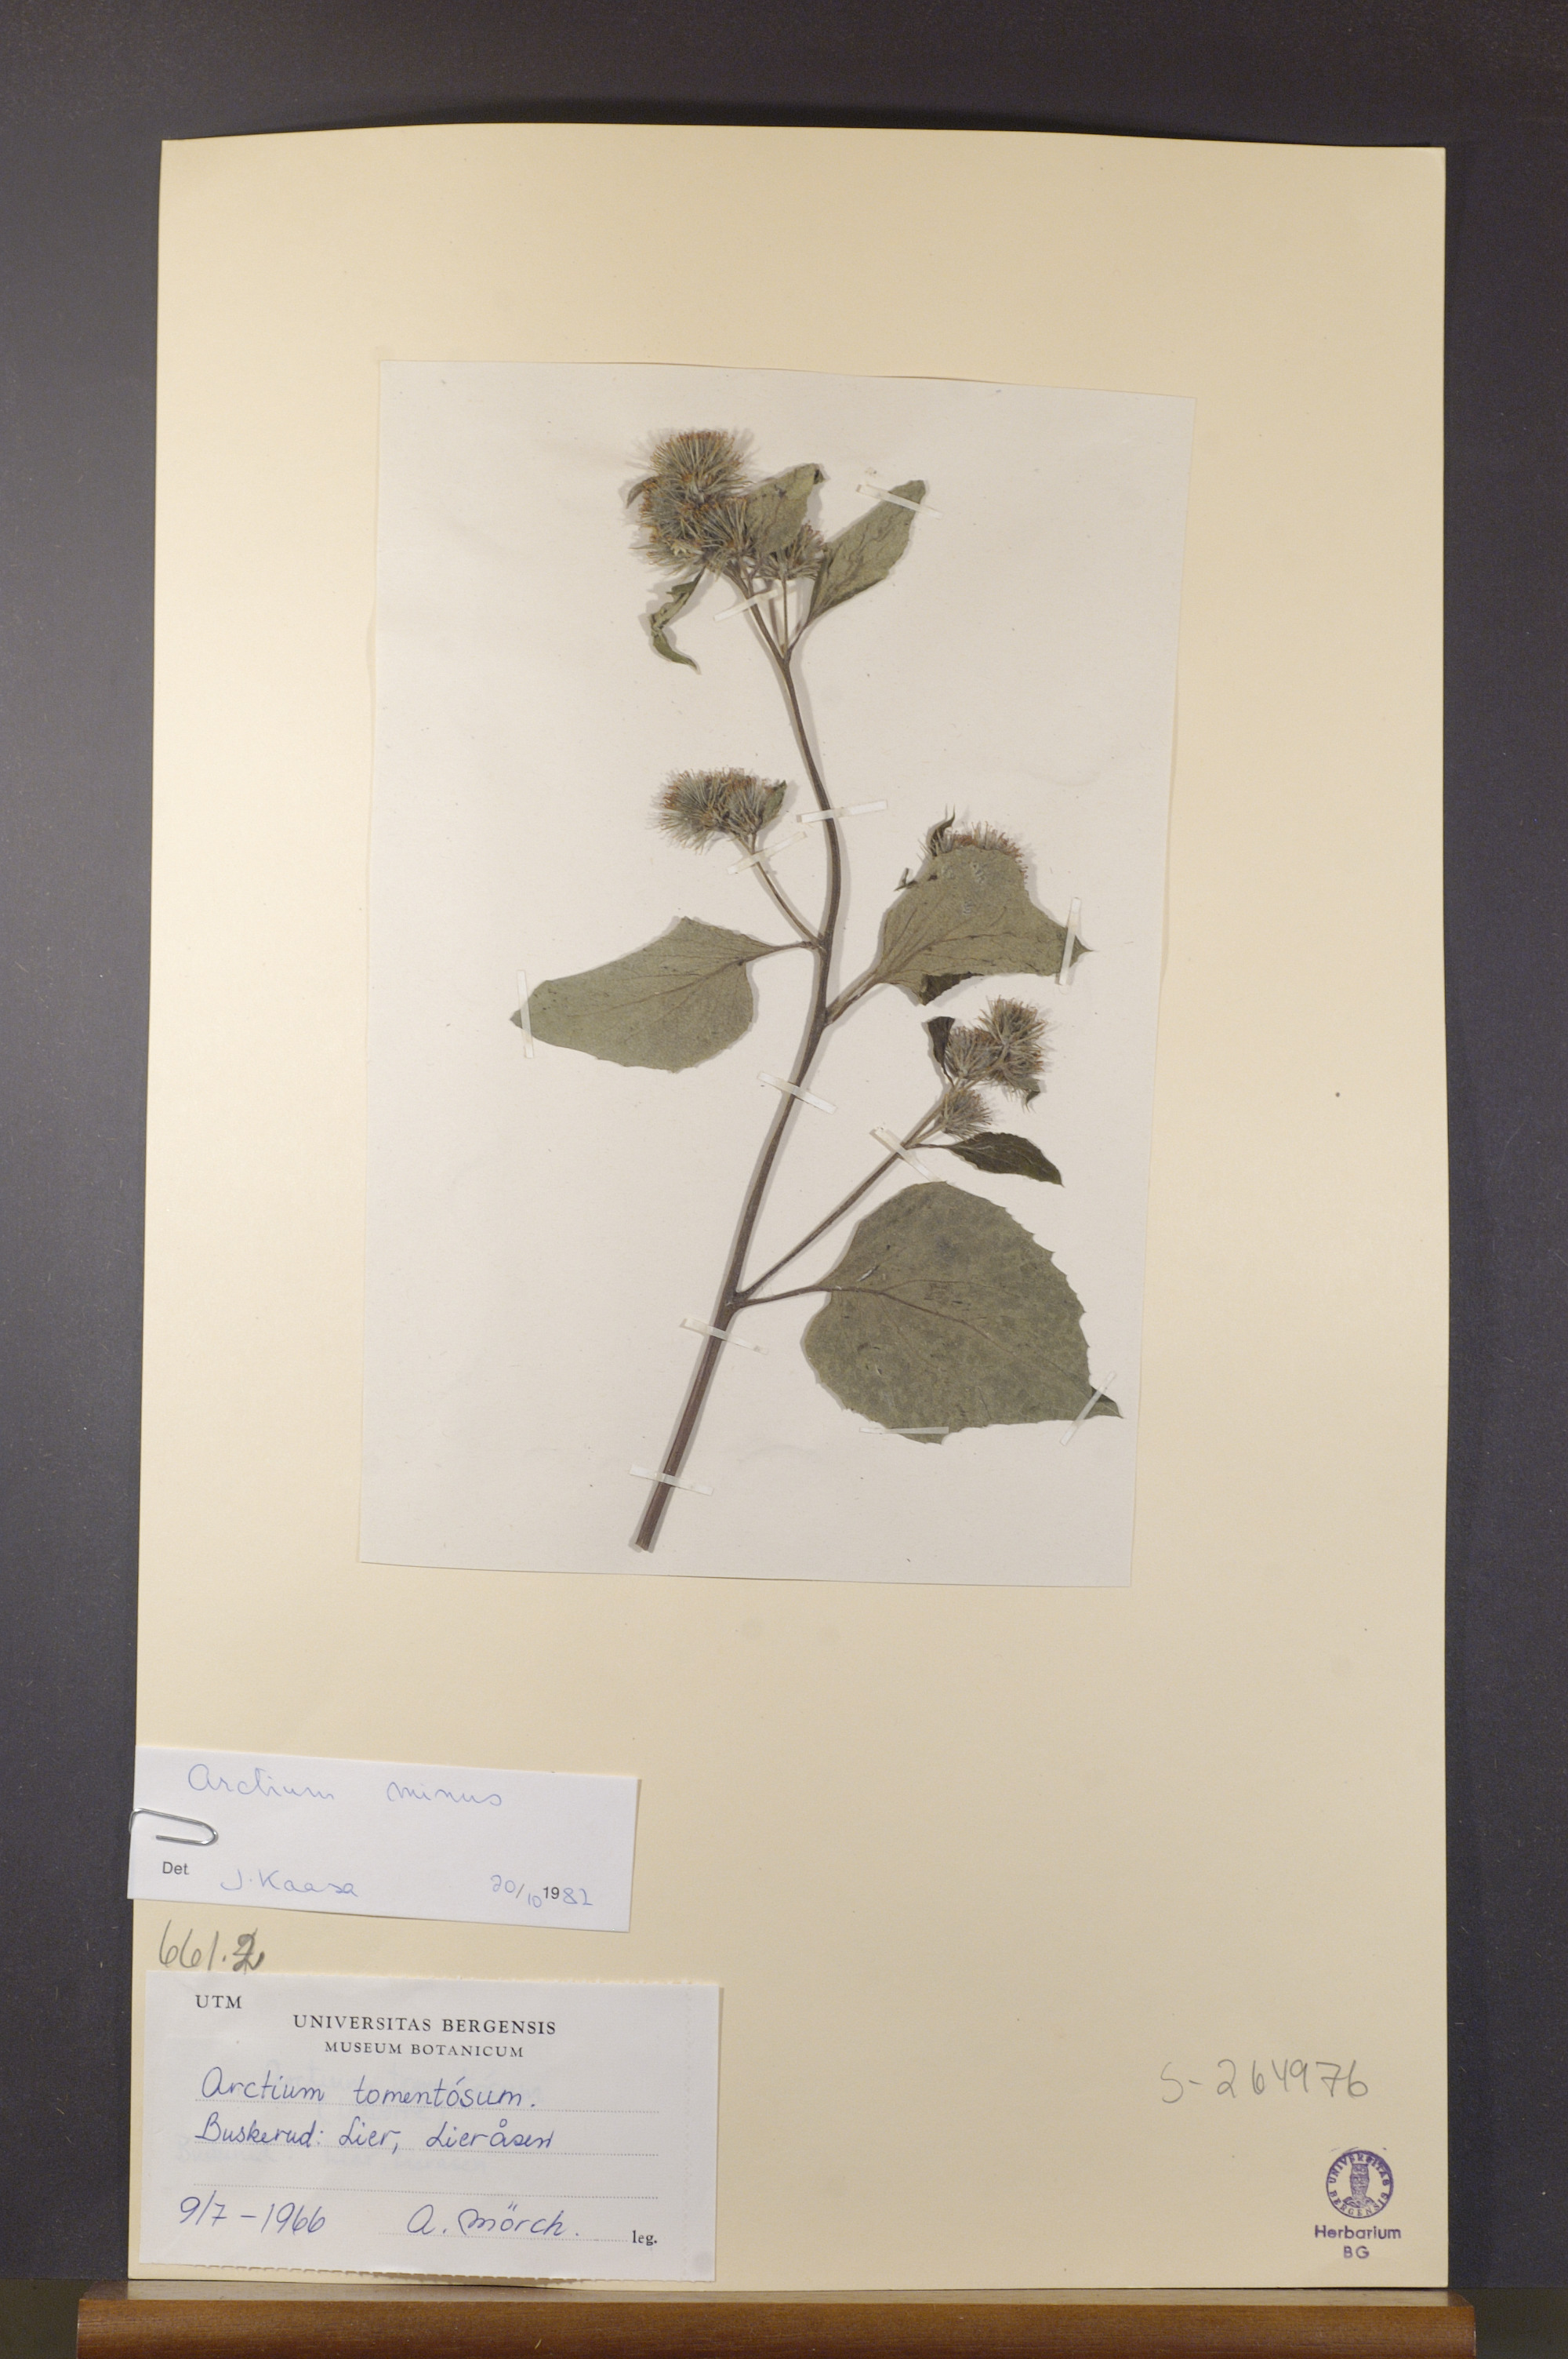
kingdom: Plantae
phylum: Tracheophyta
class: Magnoliopsida
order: Asterales
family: Asteraceae
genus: Arctium
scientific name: Arctium minus
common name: Lesser burdock
